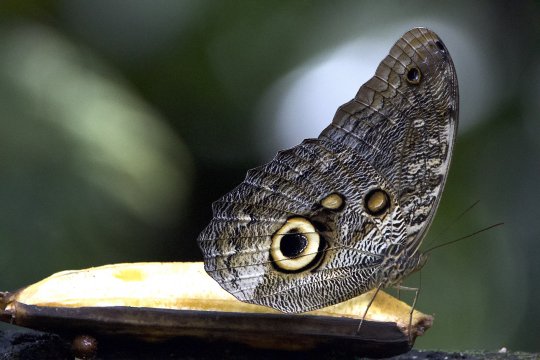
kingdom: Animalia
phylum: Arthropoda
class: Insecta
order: Lepidoptera
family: Nymphalidae
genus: Caligo
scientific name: Caligo eurilochus
